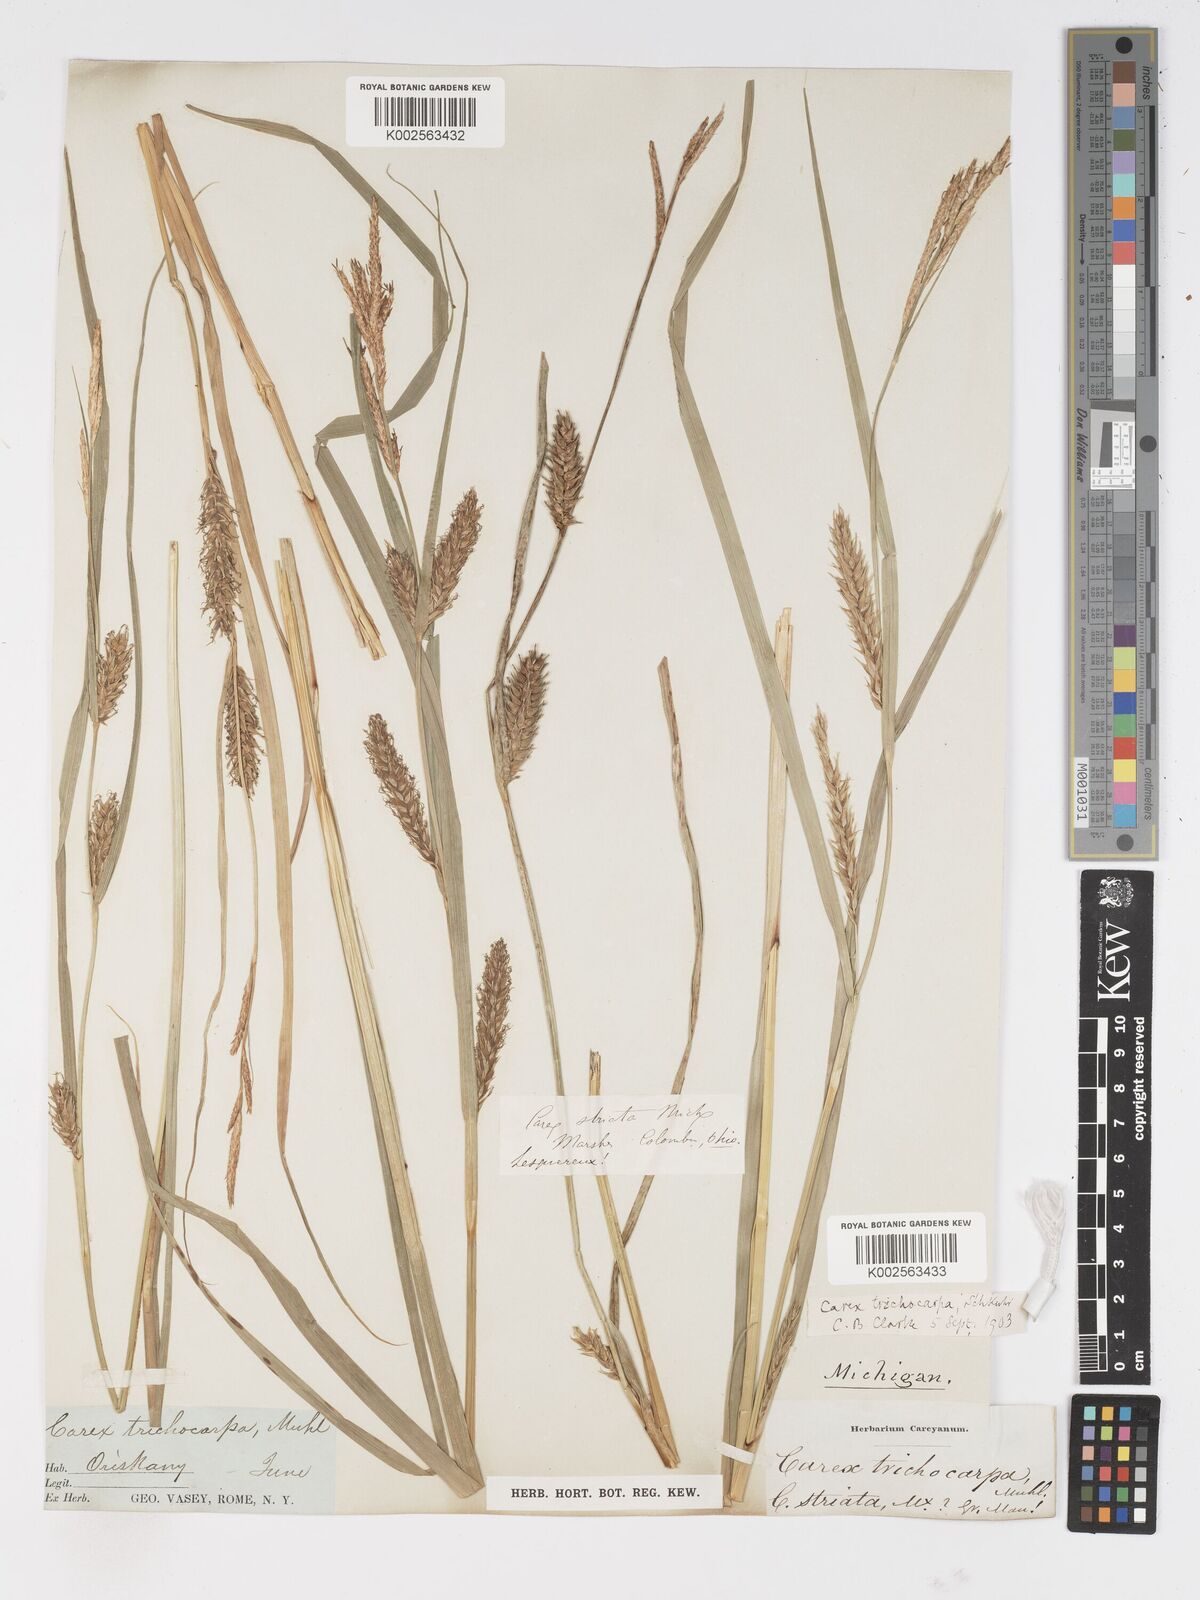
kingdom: Plantae
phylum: Tracheophyta
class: Liliopsida
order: Poales
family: Cyperaceae
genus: Carex
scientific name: Carex trichocarpa
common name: Hairy-fruited lake sedge
